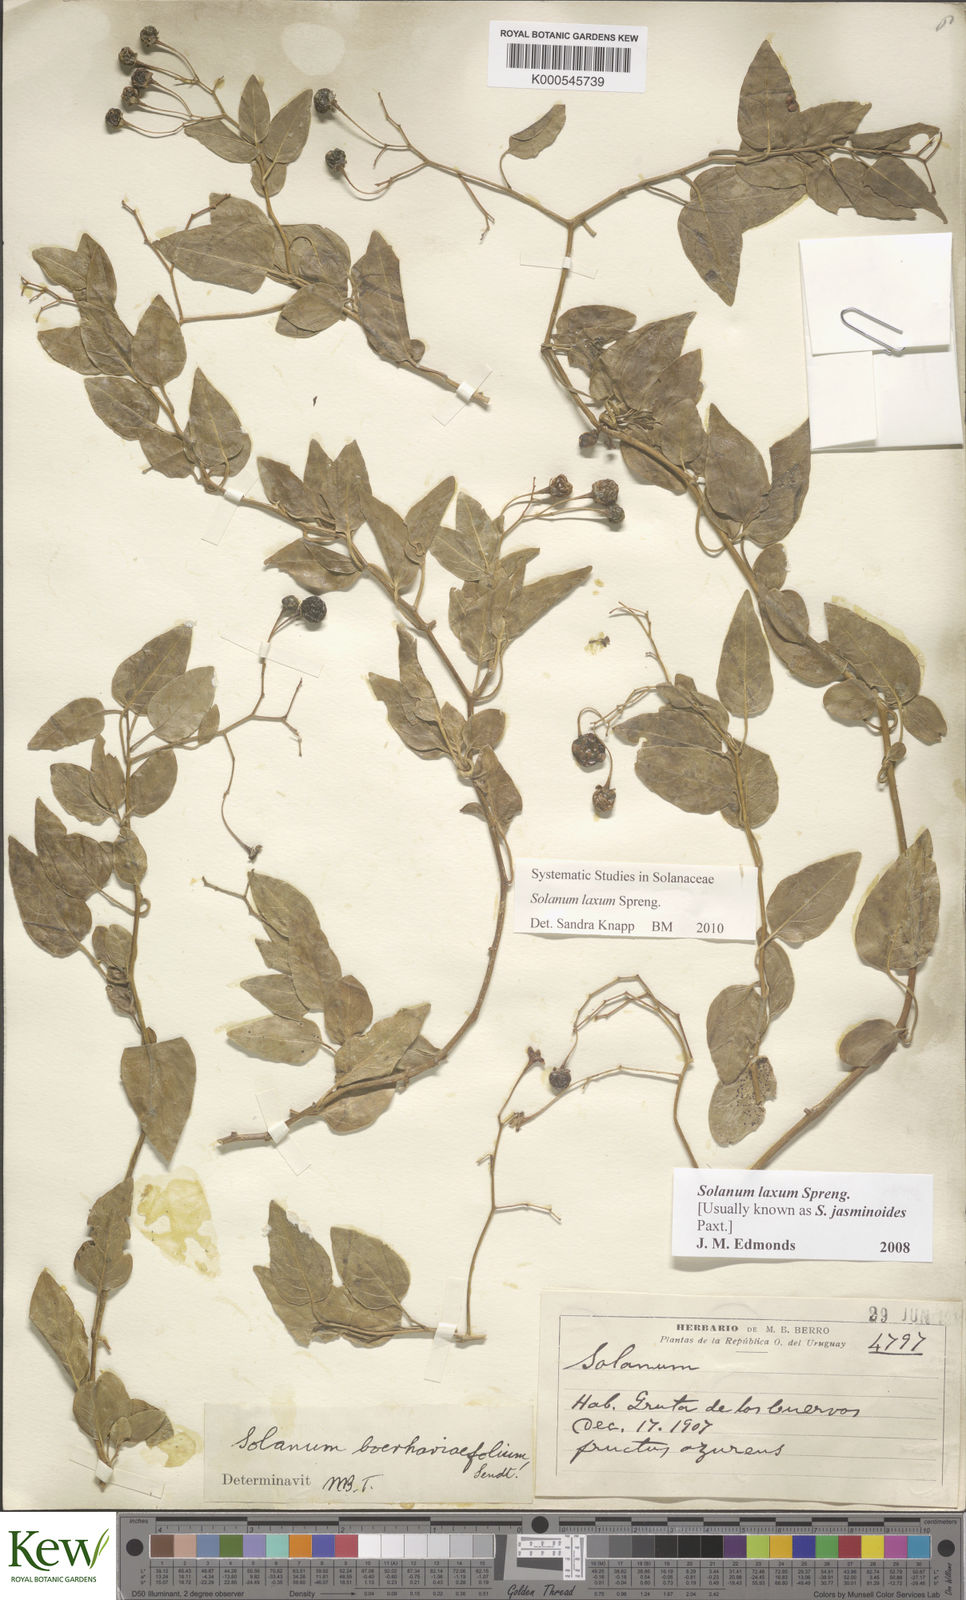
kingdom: Plantae
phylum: Tracheophyta
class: Magnoliopsida
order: Solanales
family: Solanaceae
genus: Solanum
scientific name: Solanum laxum
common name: Nightshade
